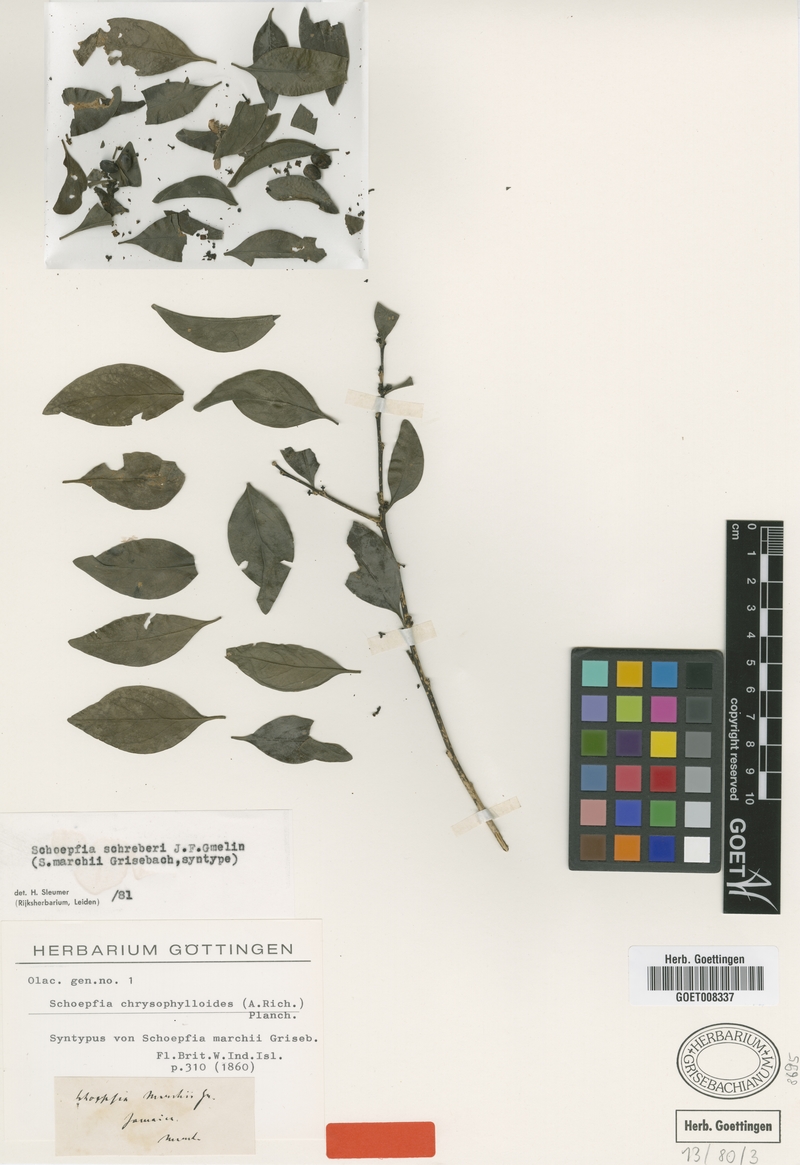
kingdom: Plantae
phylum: Tracheophyta
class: Magnoliopsida
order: Santalales
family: Schoepfiaceae
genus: Schoepfia
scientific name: Schoepfia schreberi
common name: Gulf graytwig
